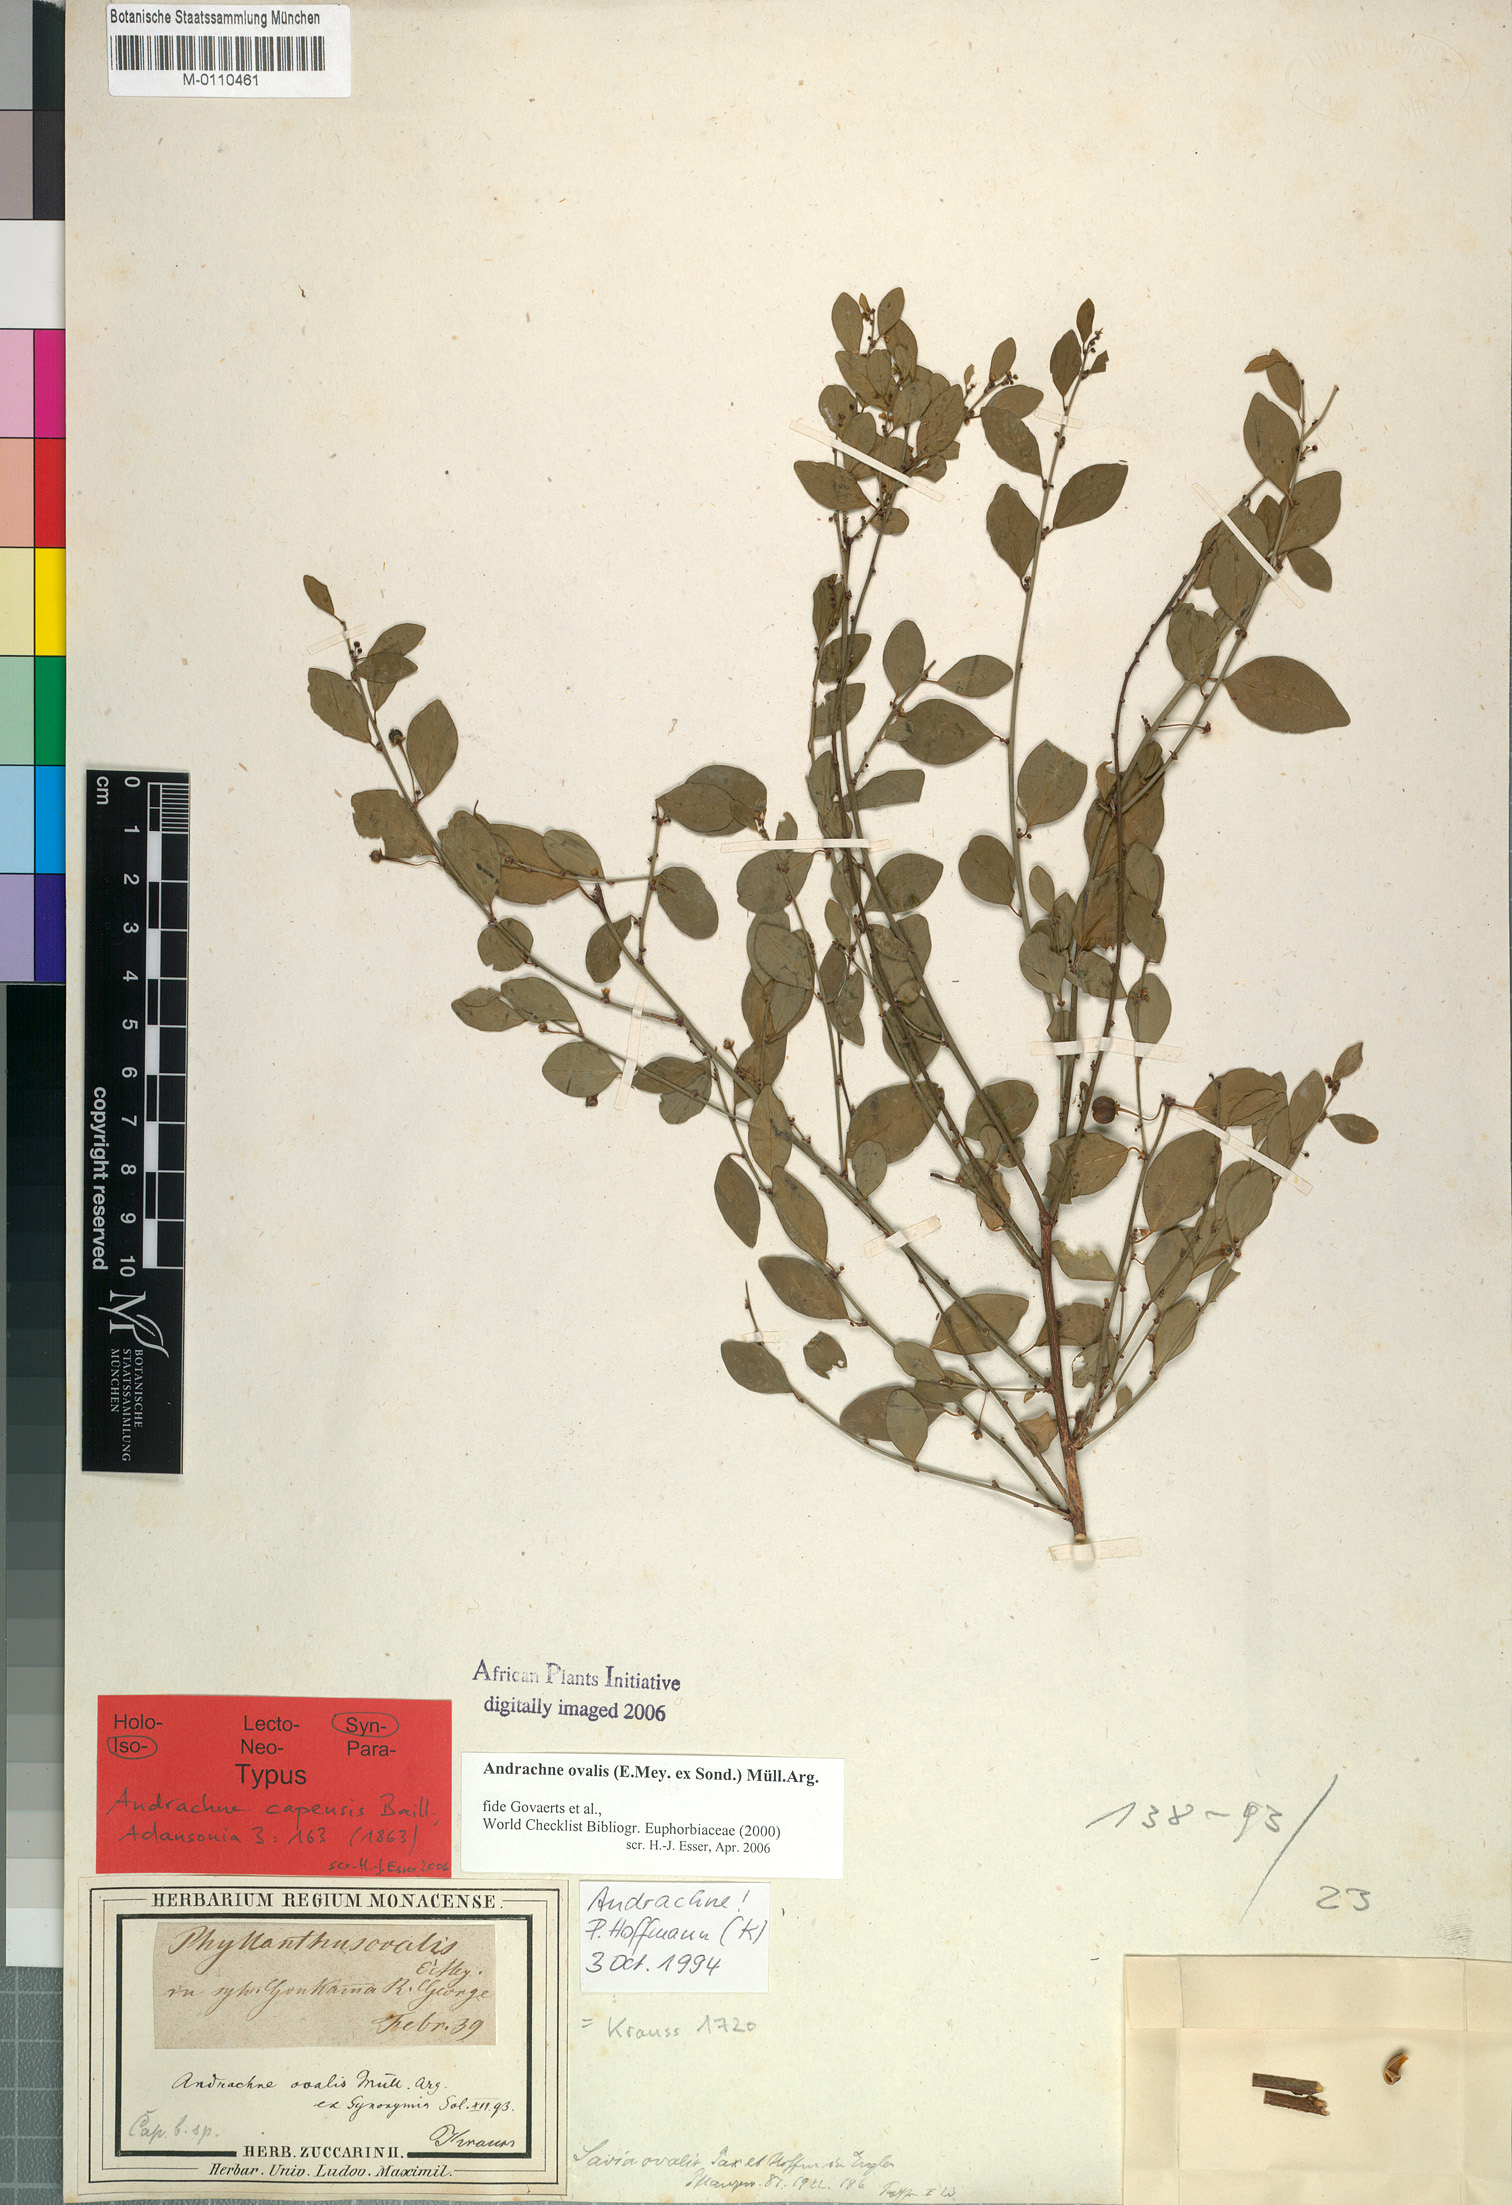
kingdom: Plantae
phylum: Tracheophyta
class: Magnoliopsida
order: Malpighiales
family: Phyllanthaceae
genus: Pseudophyllanthus
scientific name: Pseudophyllanthus ovalis
